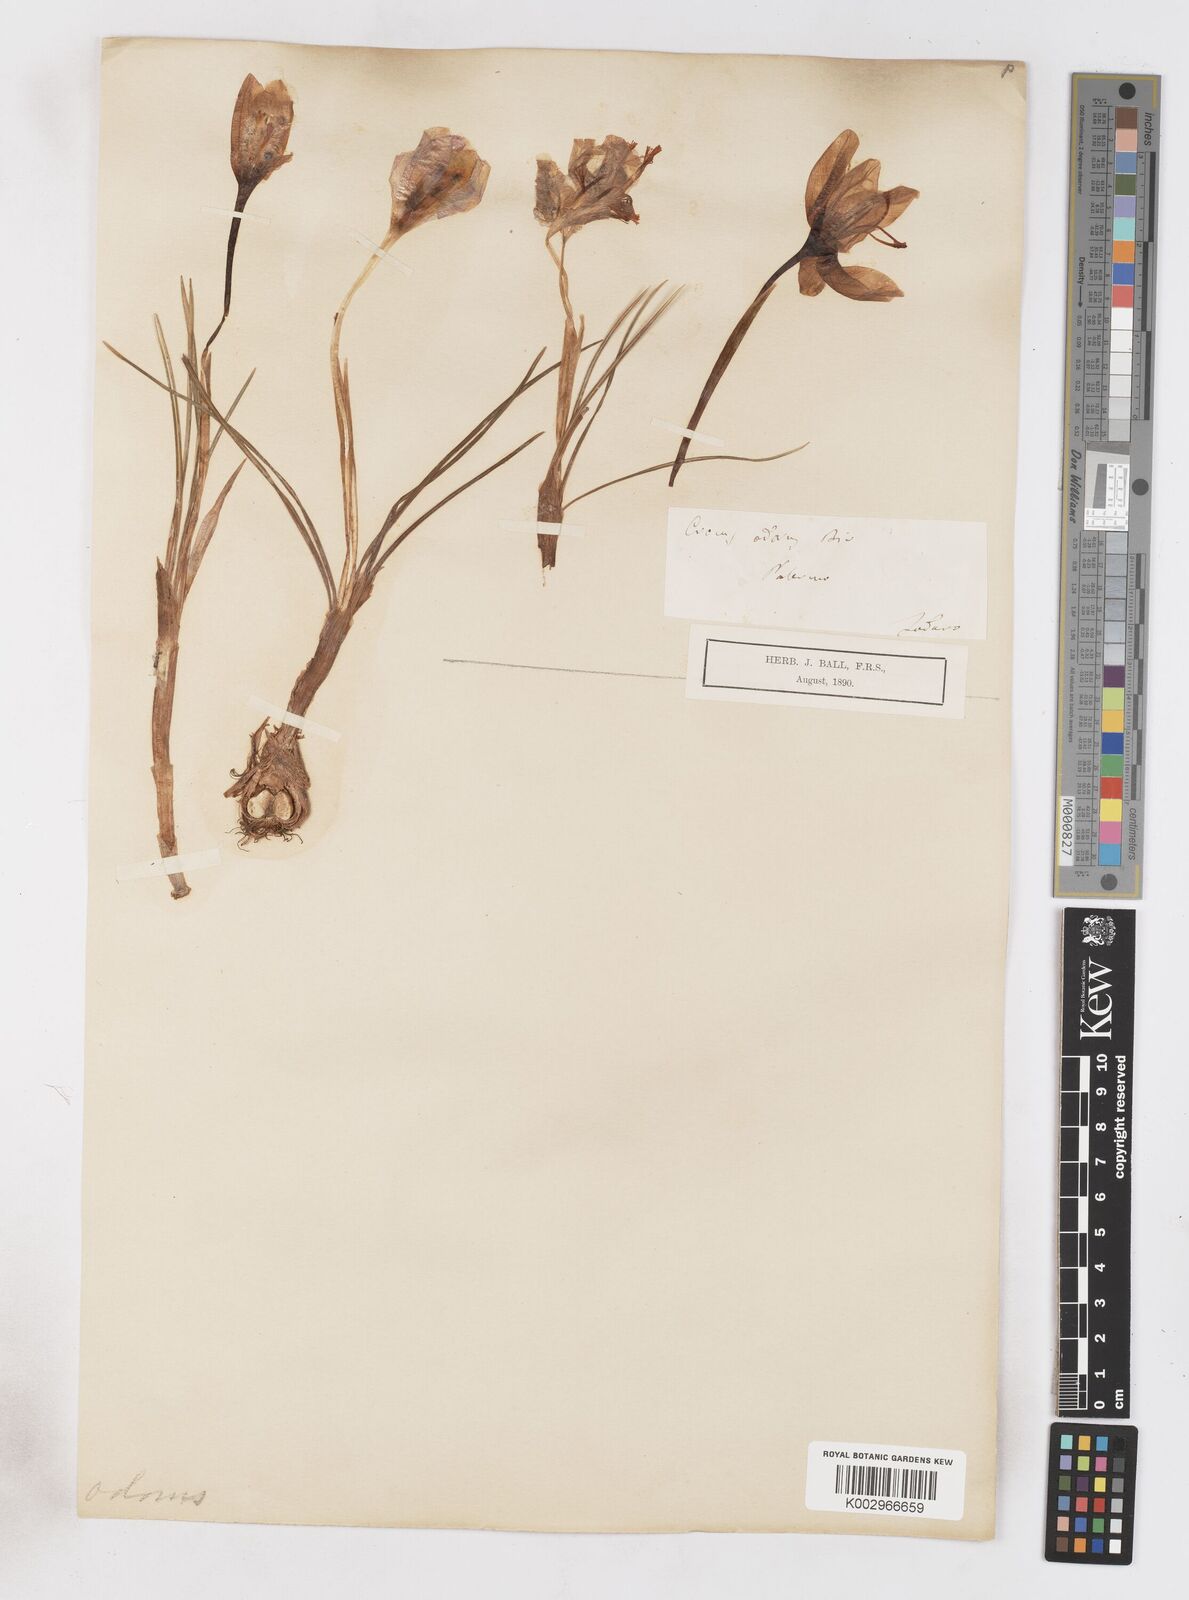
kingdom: Plantae
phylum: Tracheophyta
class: Liliopsida
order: Asparagales
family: Iridaceae
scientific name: Iridaceae
